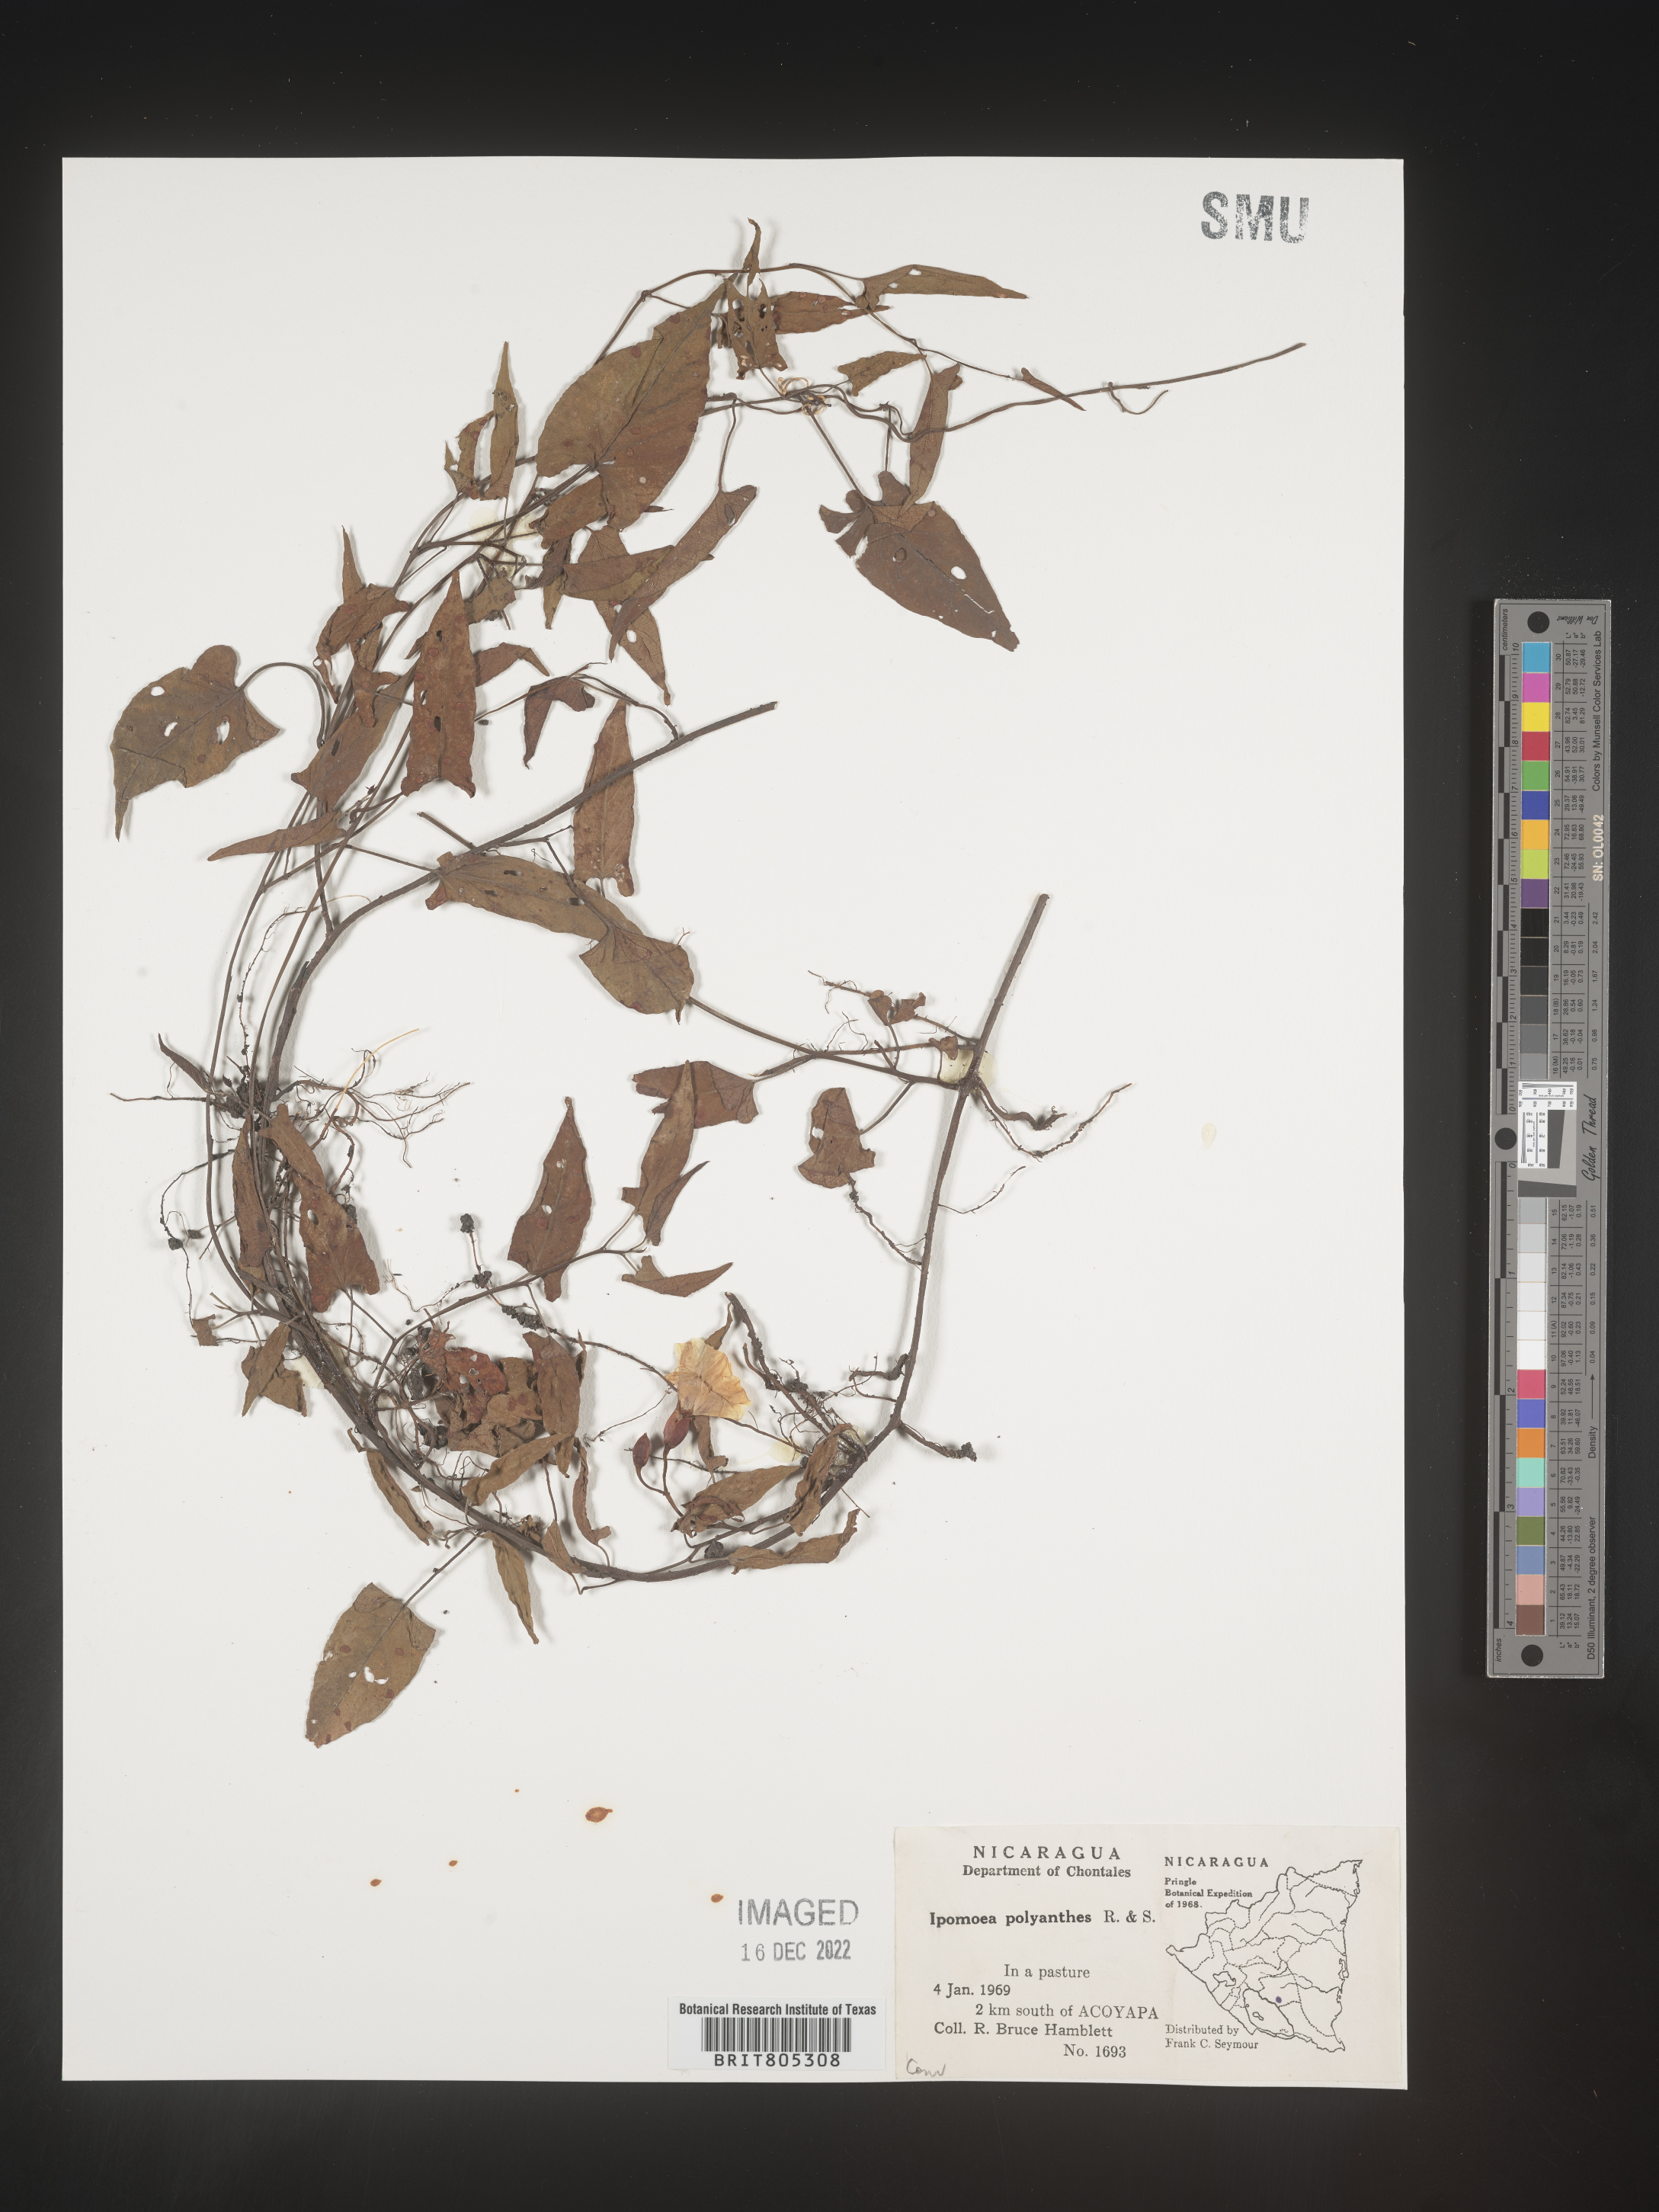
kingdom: Plantae
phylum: Tracheophyta
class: Magnoliopsida
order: Solanales
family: Convolvulaceae
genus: Ipomoea
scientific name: Ipomoea
